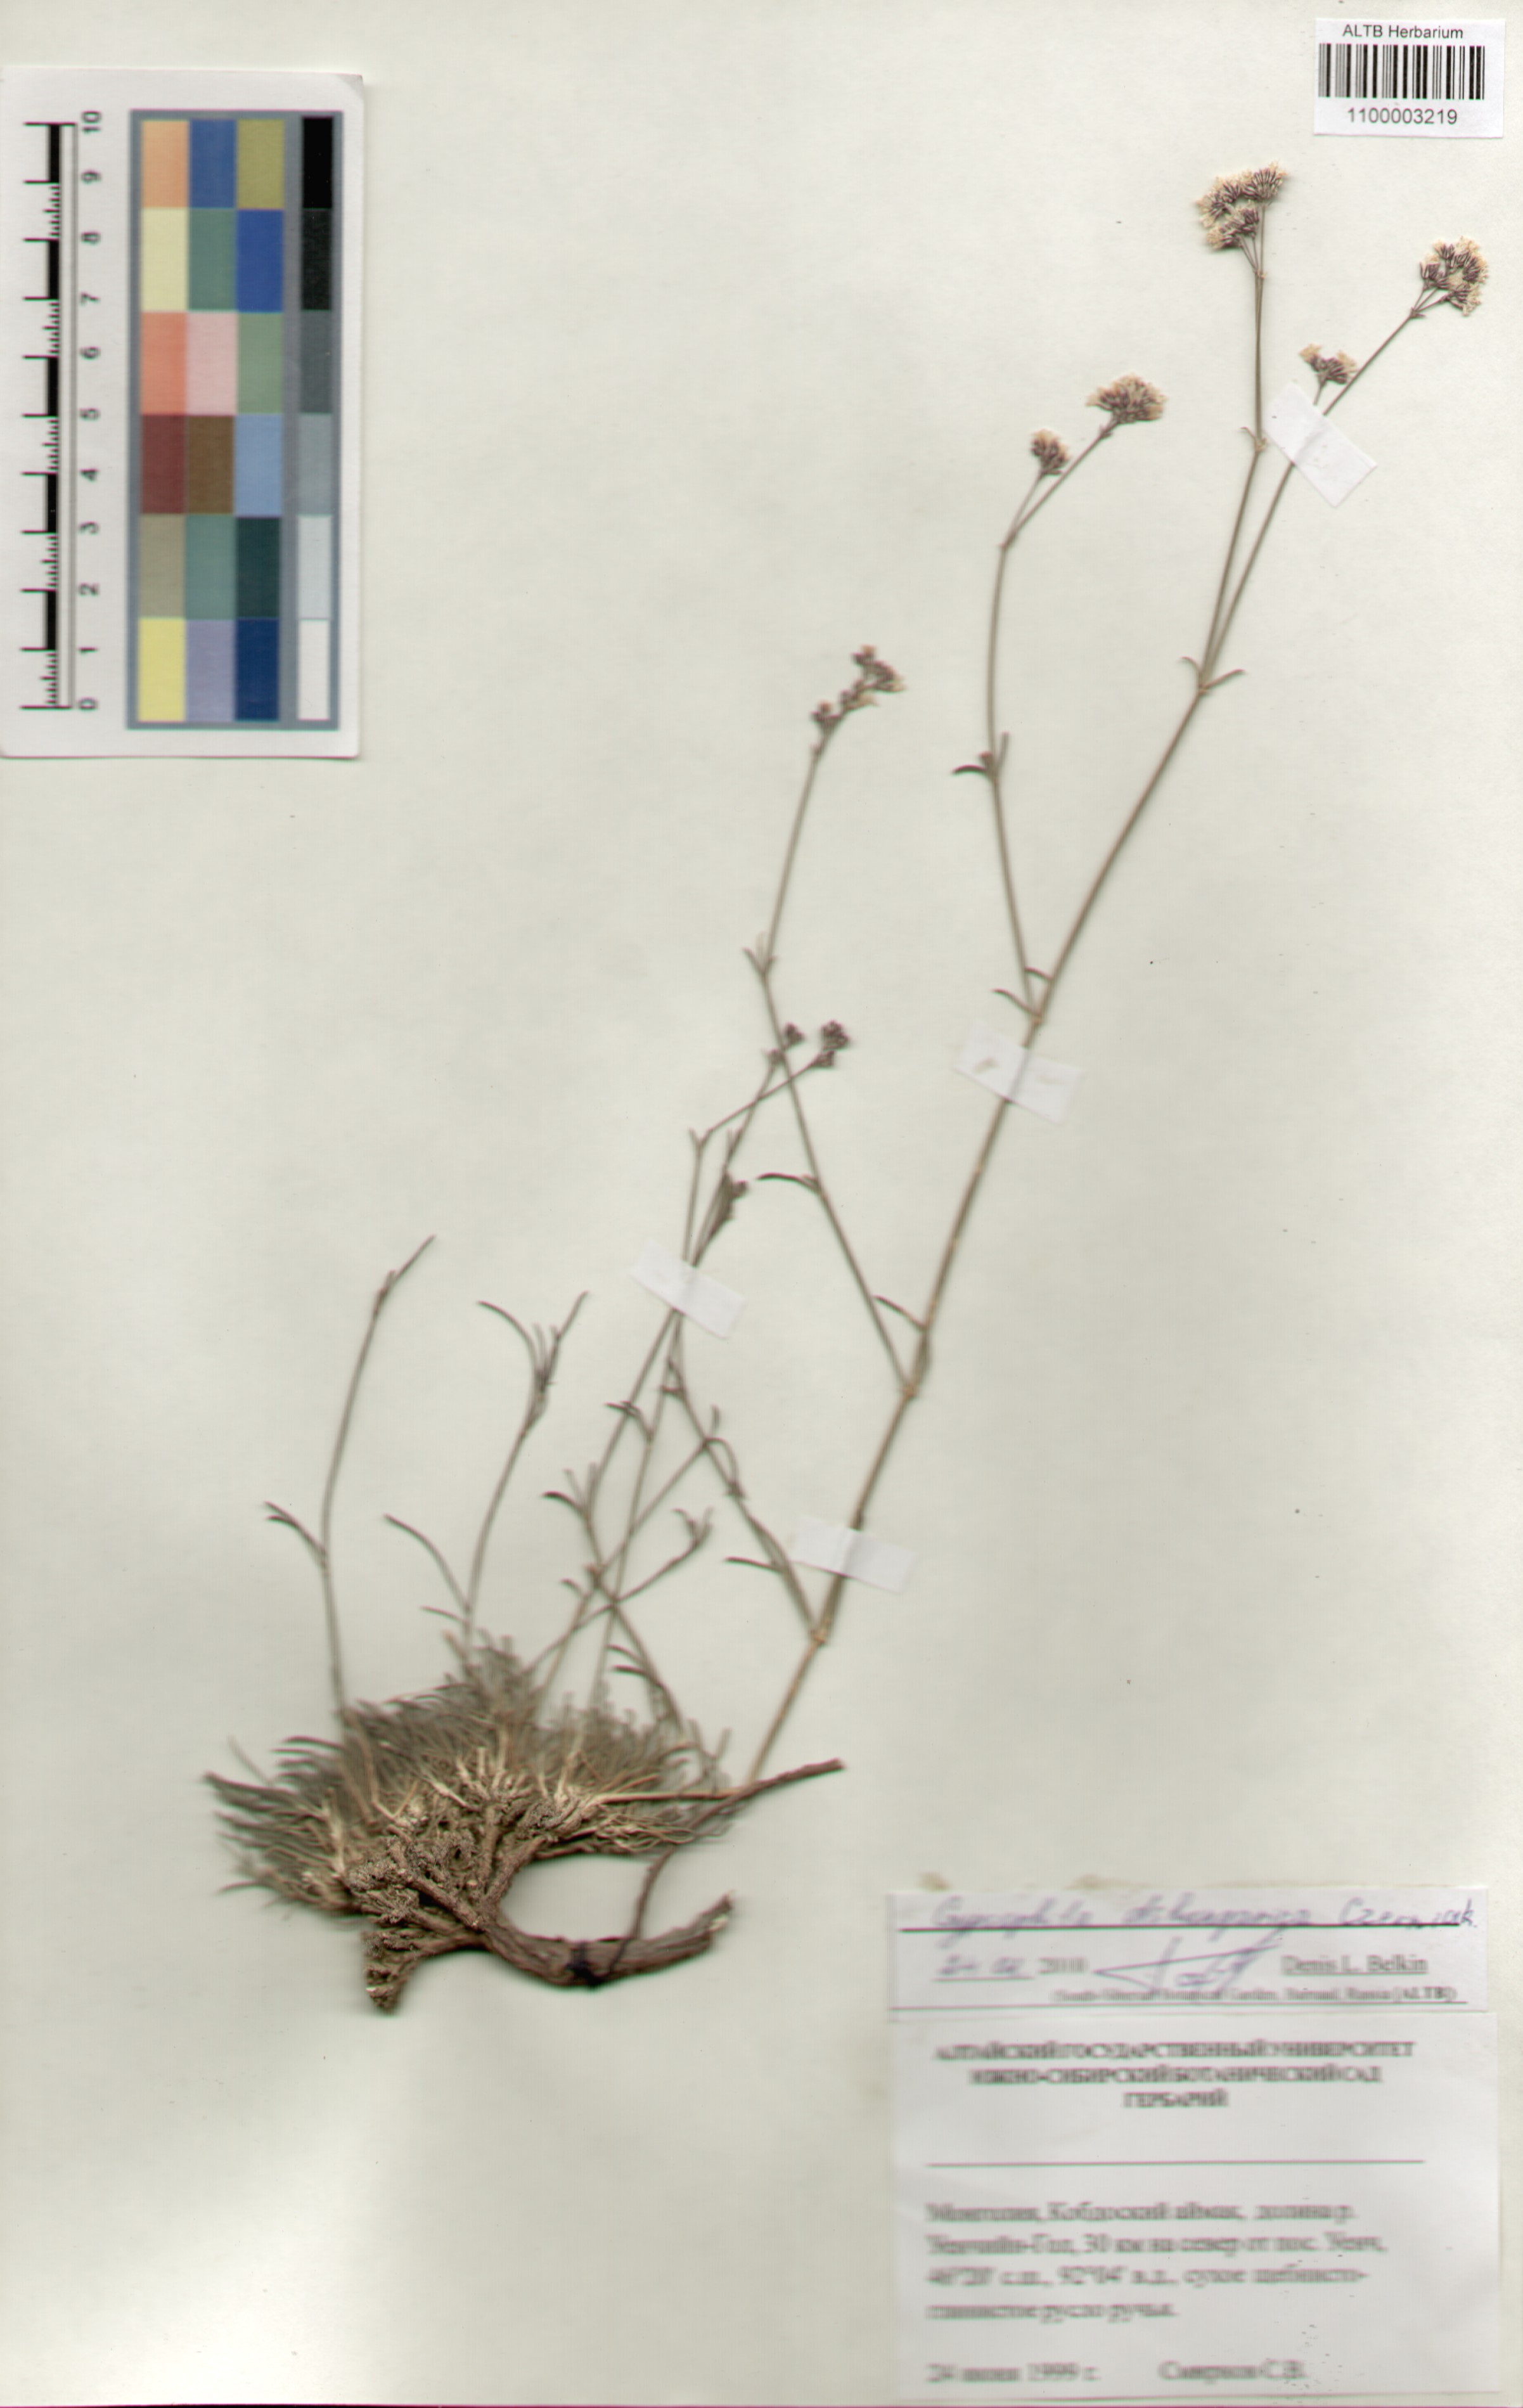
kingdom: Plantae
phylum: Tracheophyta
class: Magnoliopsida
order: Caryophyllales
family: Caryophyllaceae
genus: Gypsophila
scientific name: Gypsophila capituliflora
